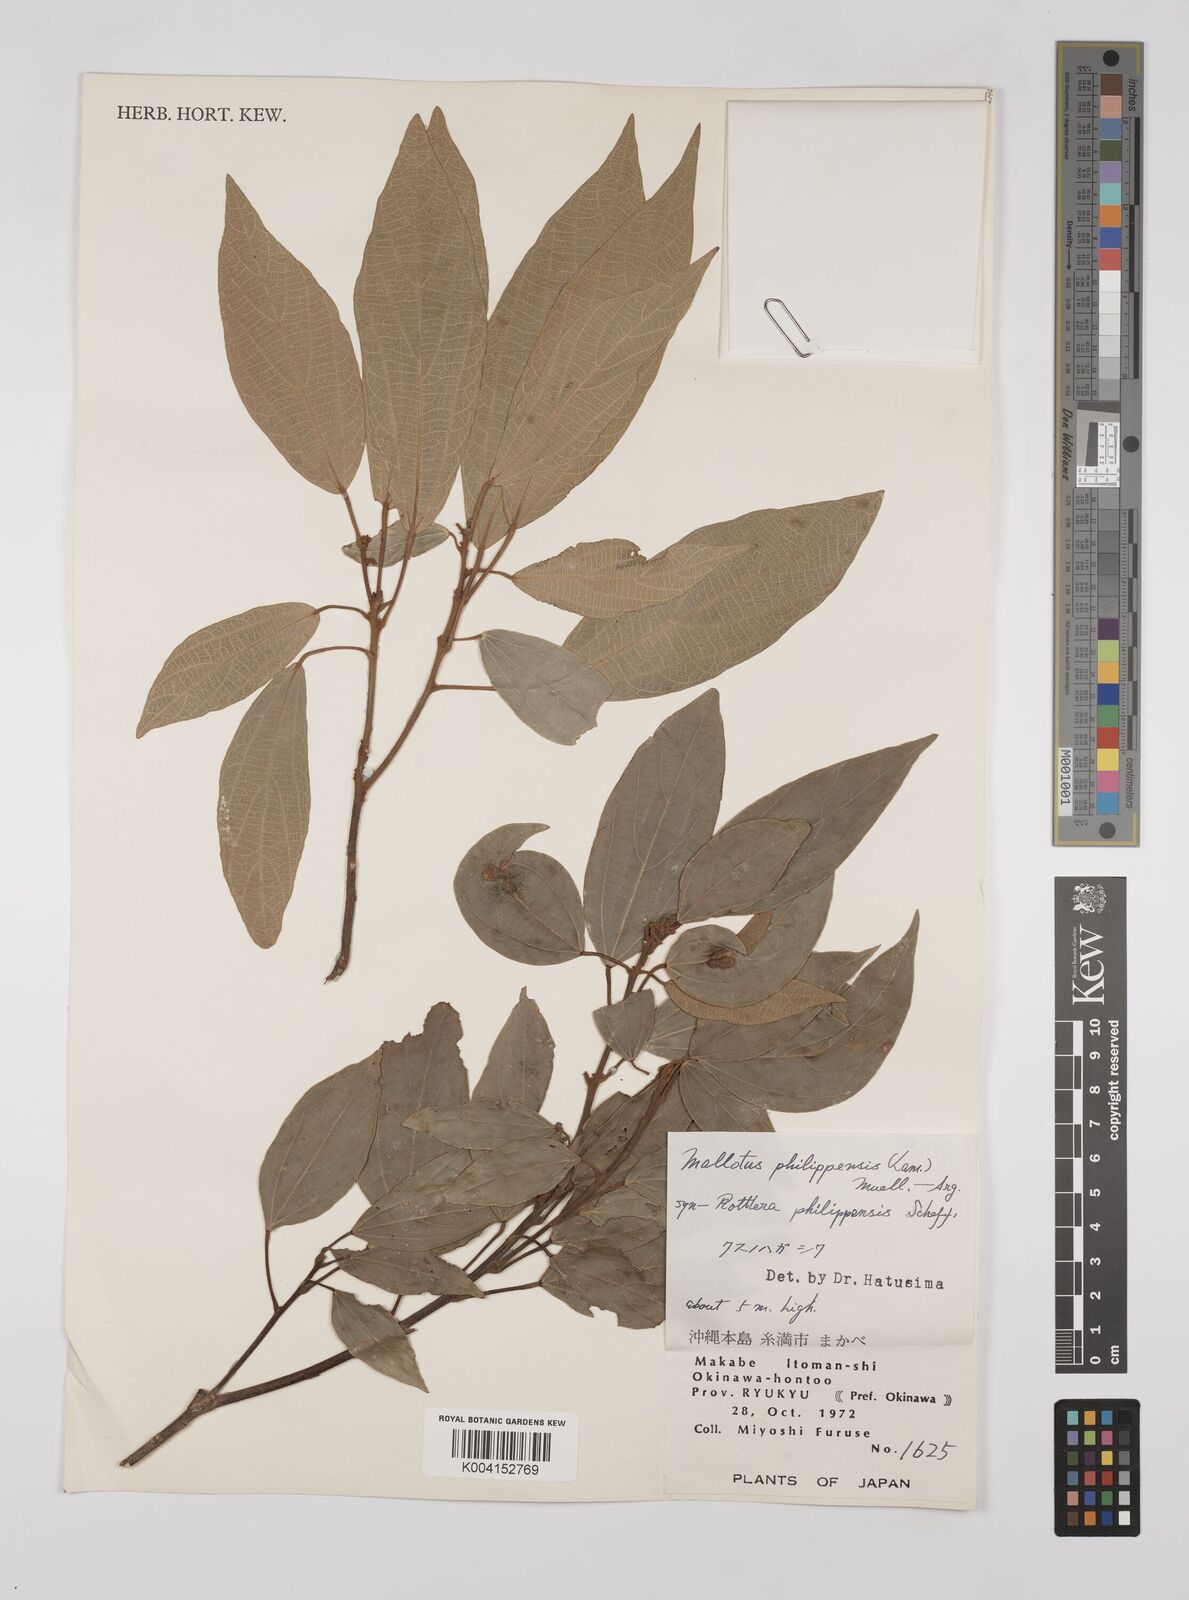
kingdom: Plantae
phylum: Tracheophyta
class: Magnoliopsida
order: Malpighiales
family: Euphorbiaceae
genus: Mallotus
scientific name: Mallotus philippensis
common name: Kamala tree
